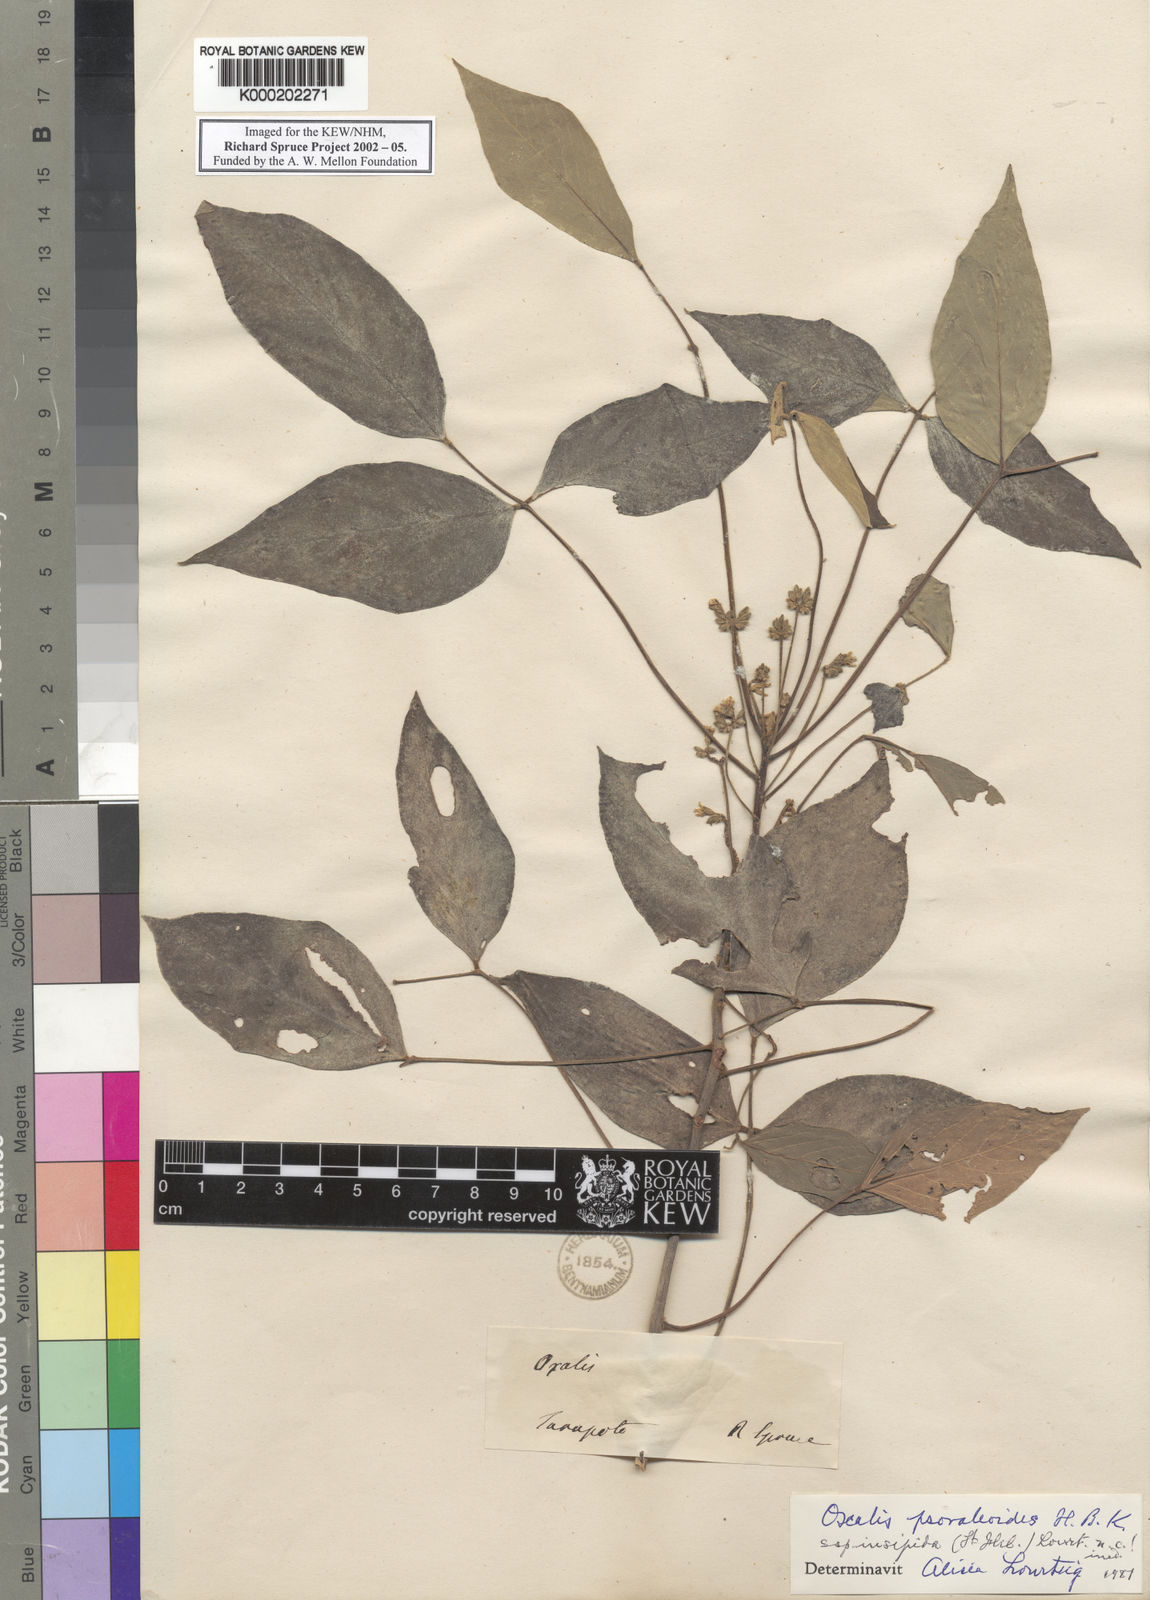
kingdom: Plantae
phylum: Tracheophyta
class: Magnoliopsida
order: Oxalidales
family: Oxalidaceae
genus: Oxalis
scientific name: Oxalis psoraleoides
